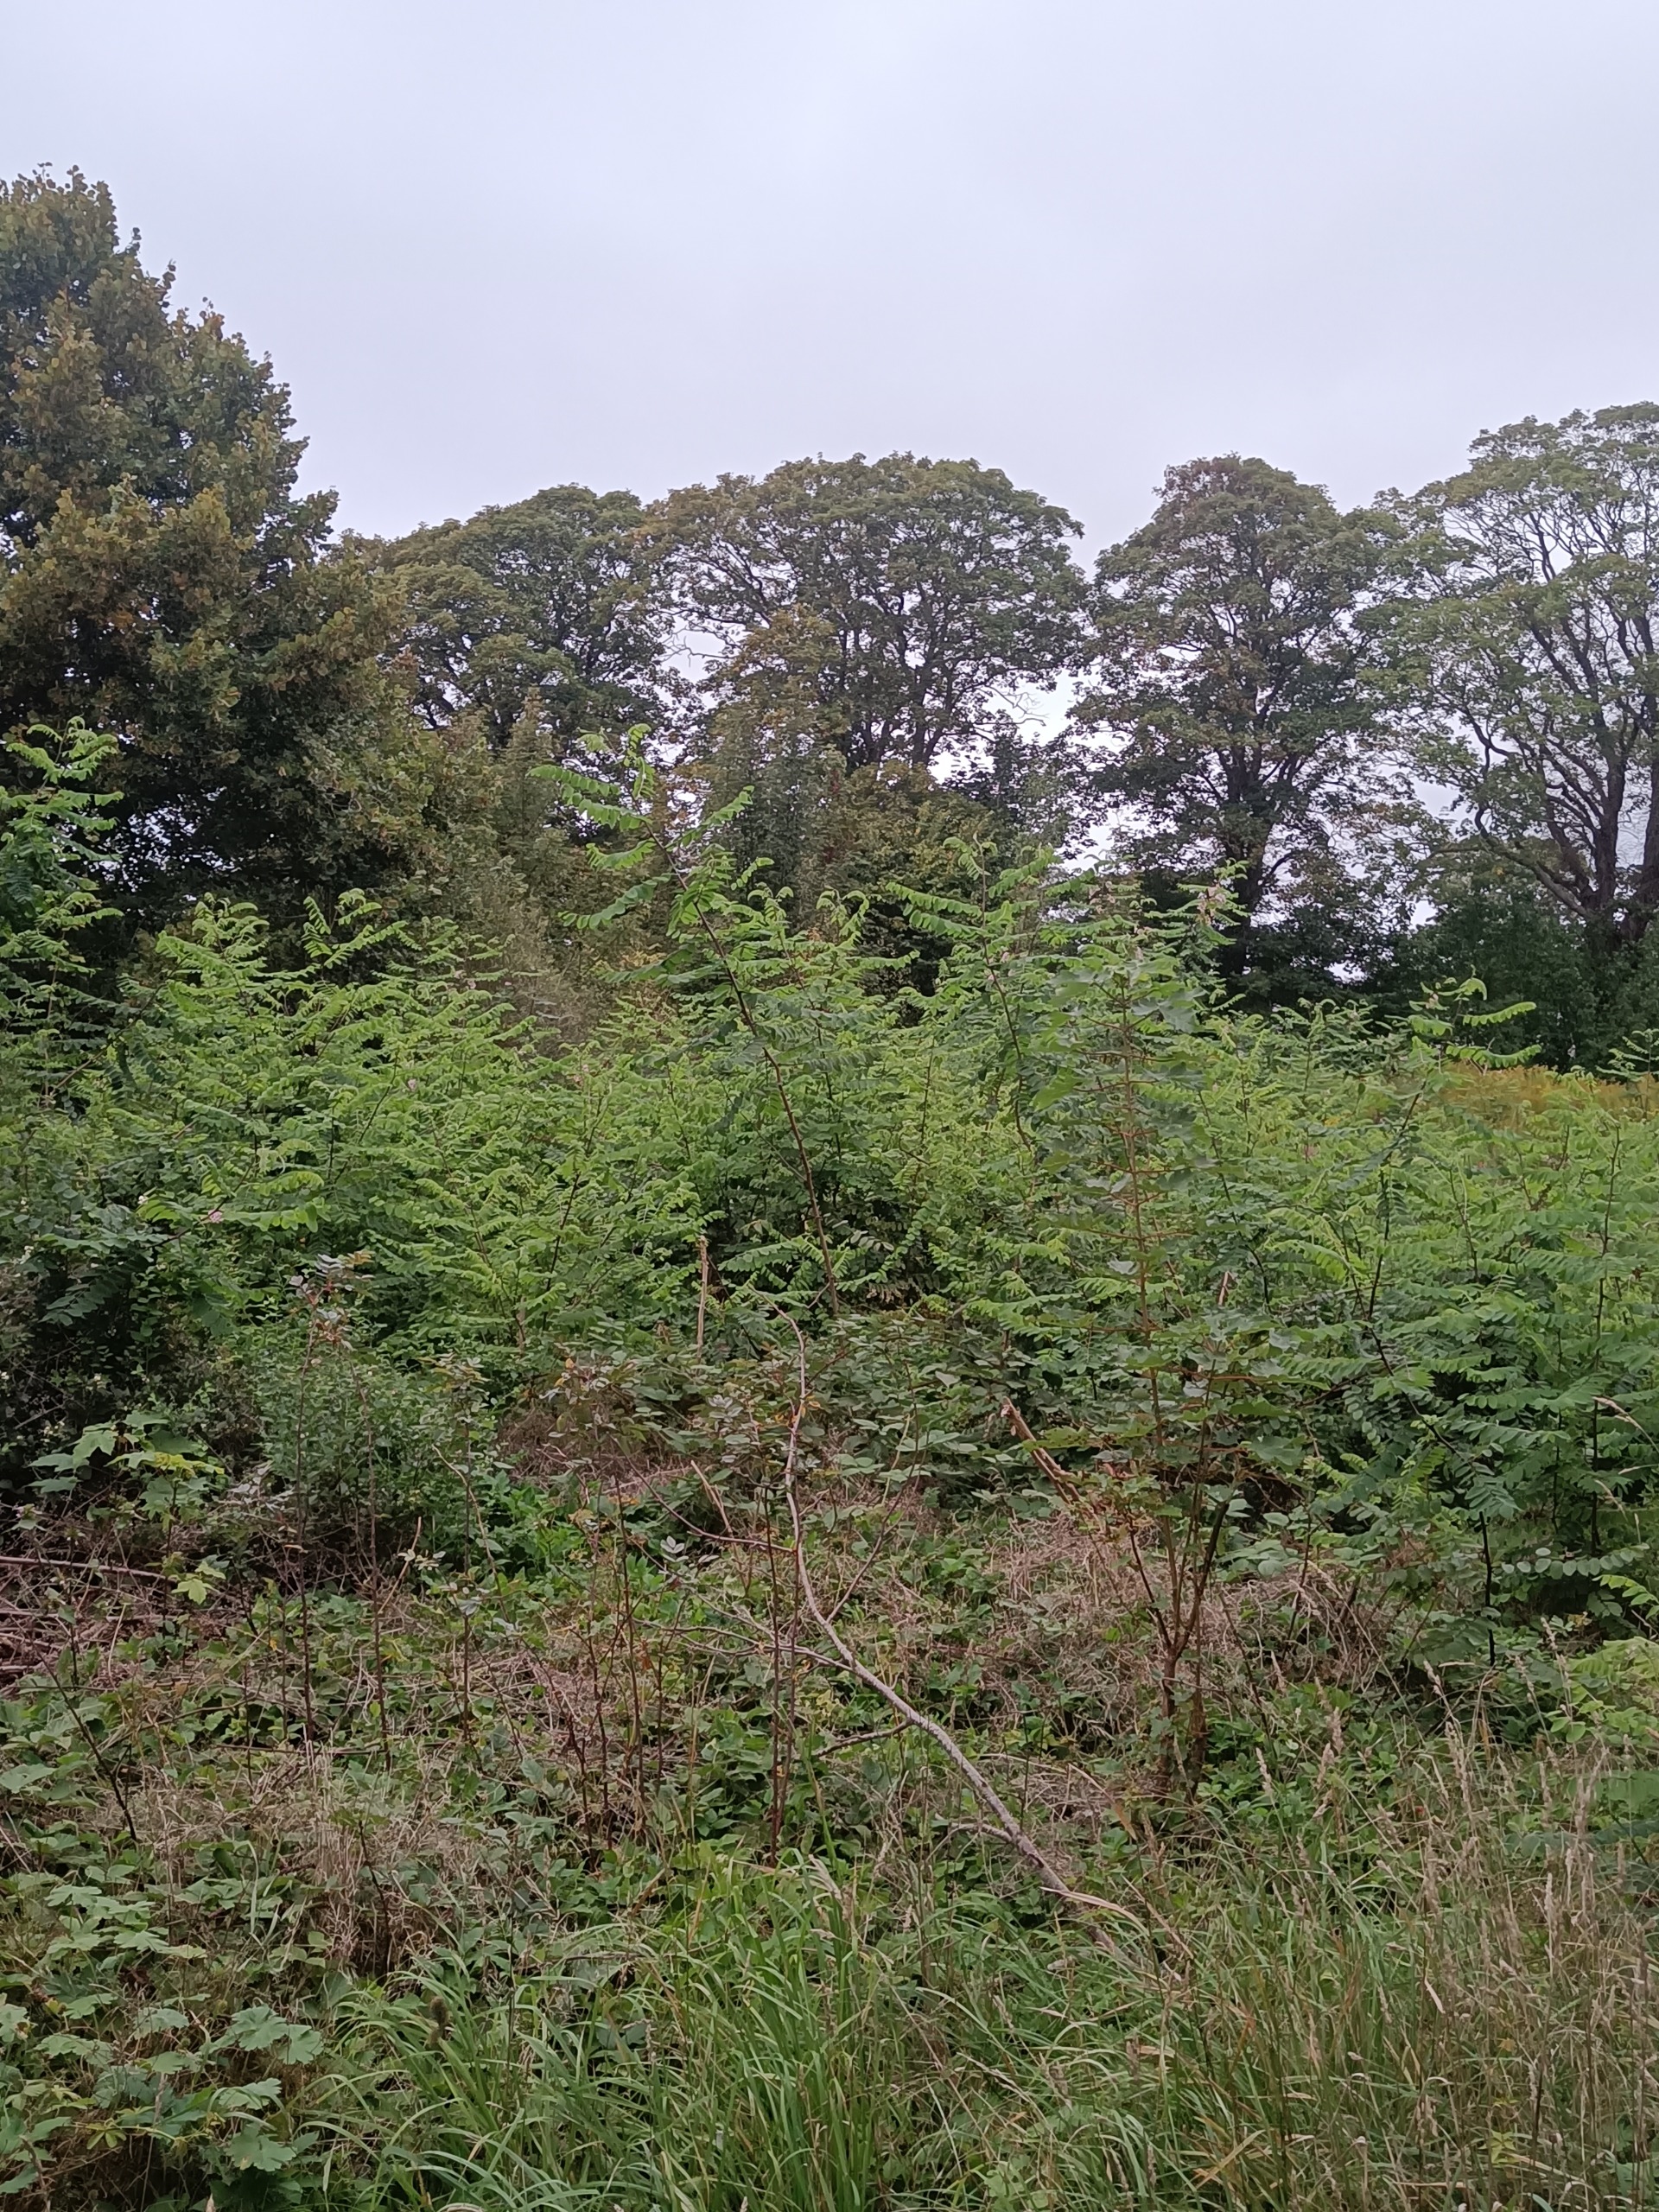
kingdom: Plantae
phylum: Tracheophyta
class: Magnoliopsida
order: Fabales
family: Fabaceae
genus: Robinia
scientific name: Robinia pseudoacacia
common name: Robinie
